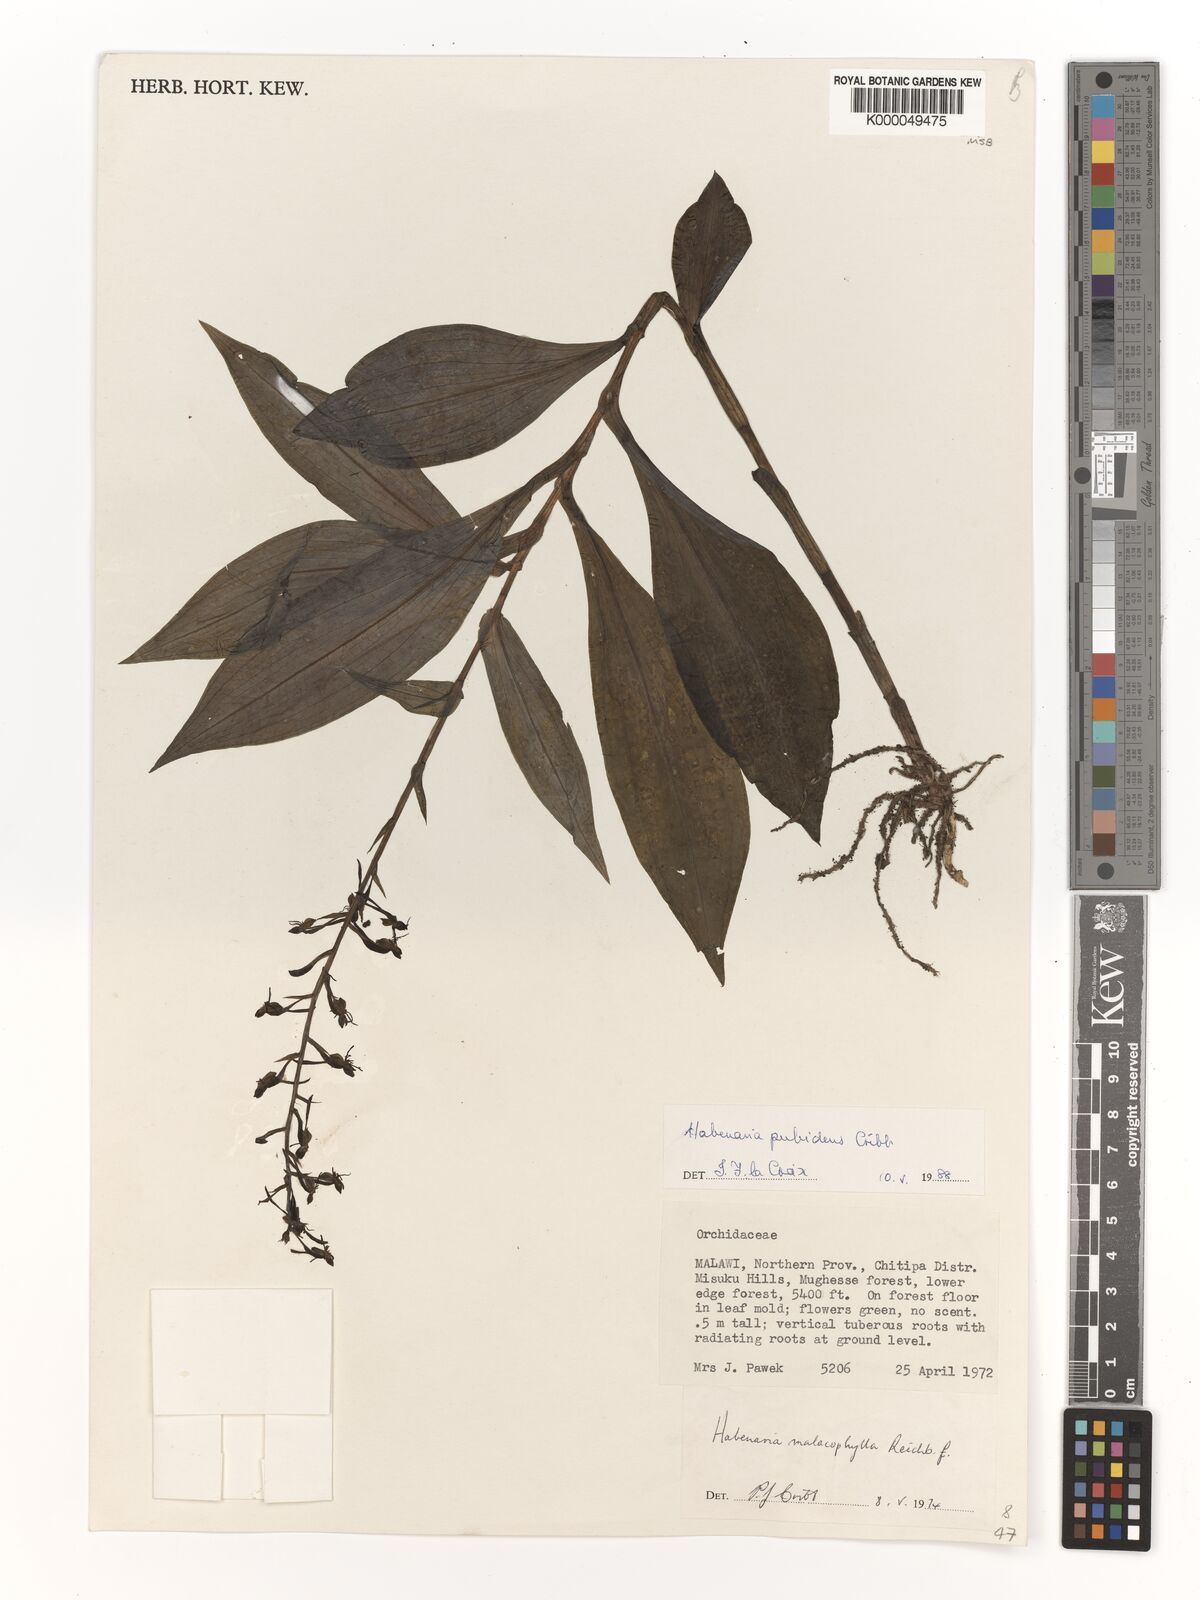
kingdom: Plantae
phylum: Tracheophyta
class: Liliopsida
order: Asparagales
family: Orchidaceae
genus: Habenaria
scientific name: Habenaria pubidens
